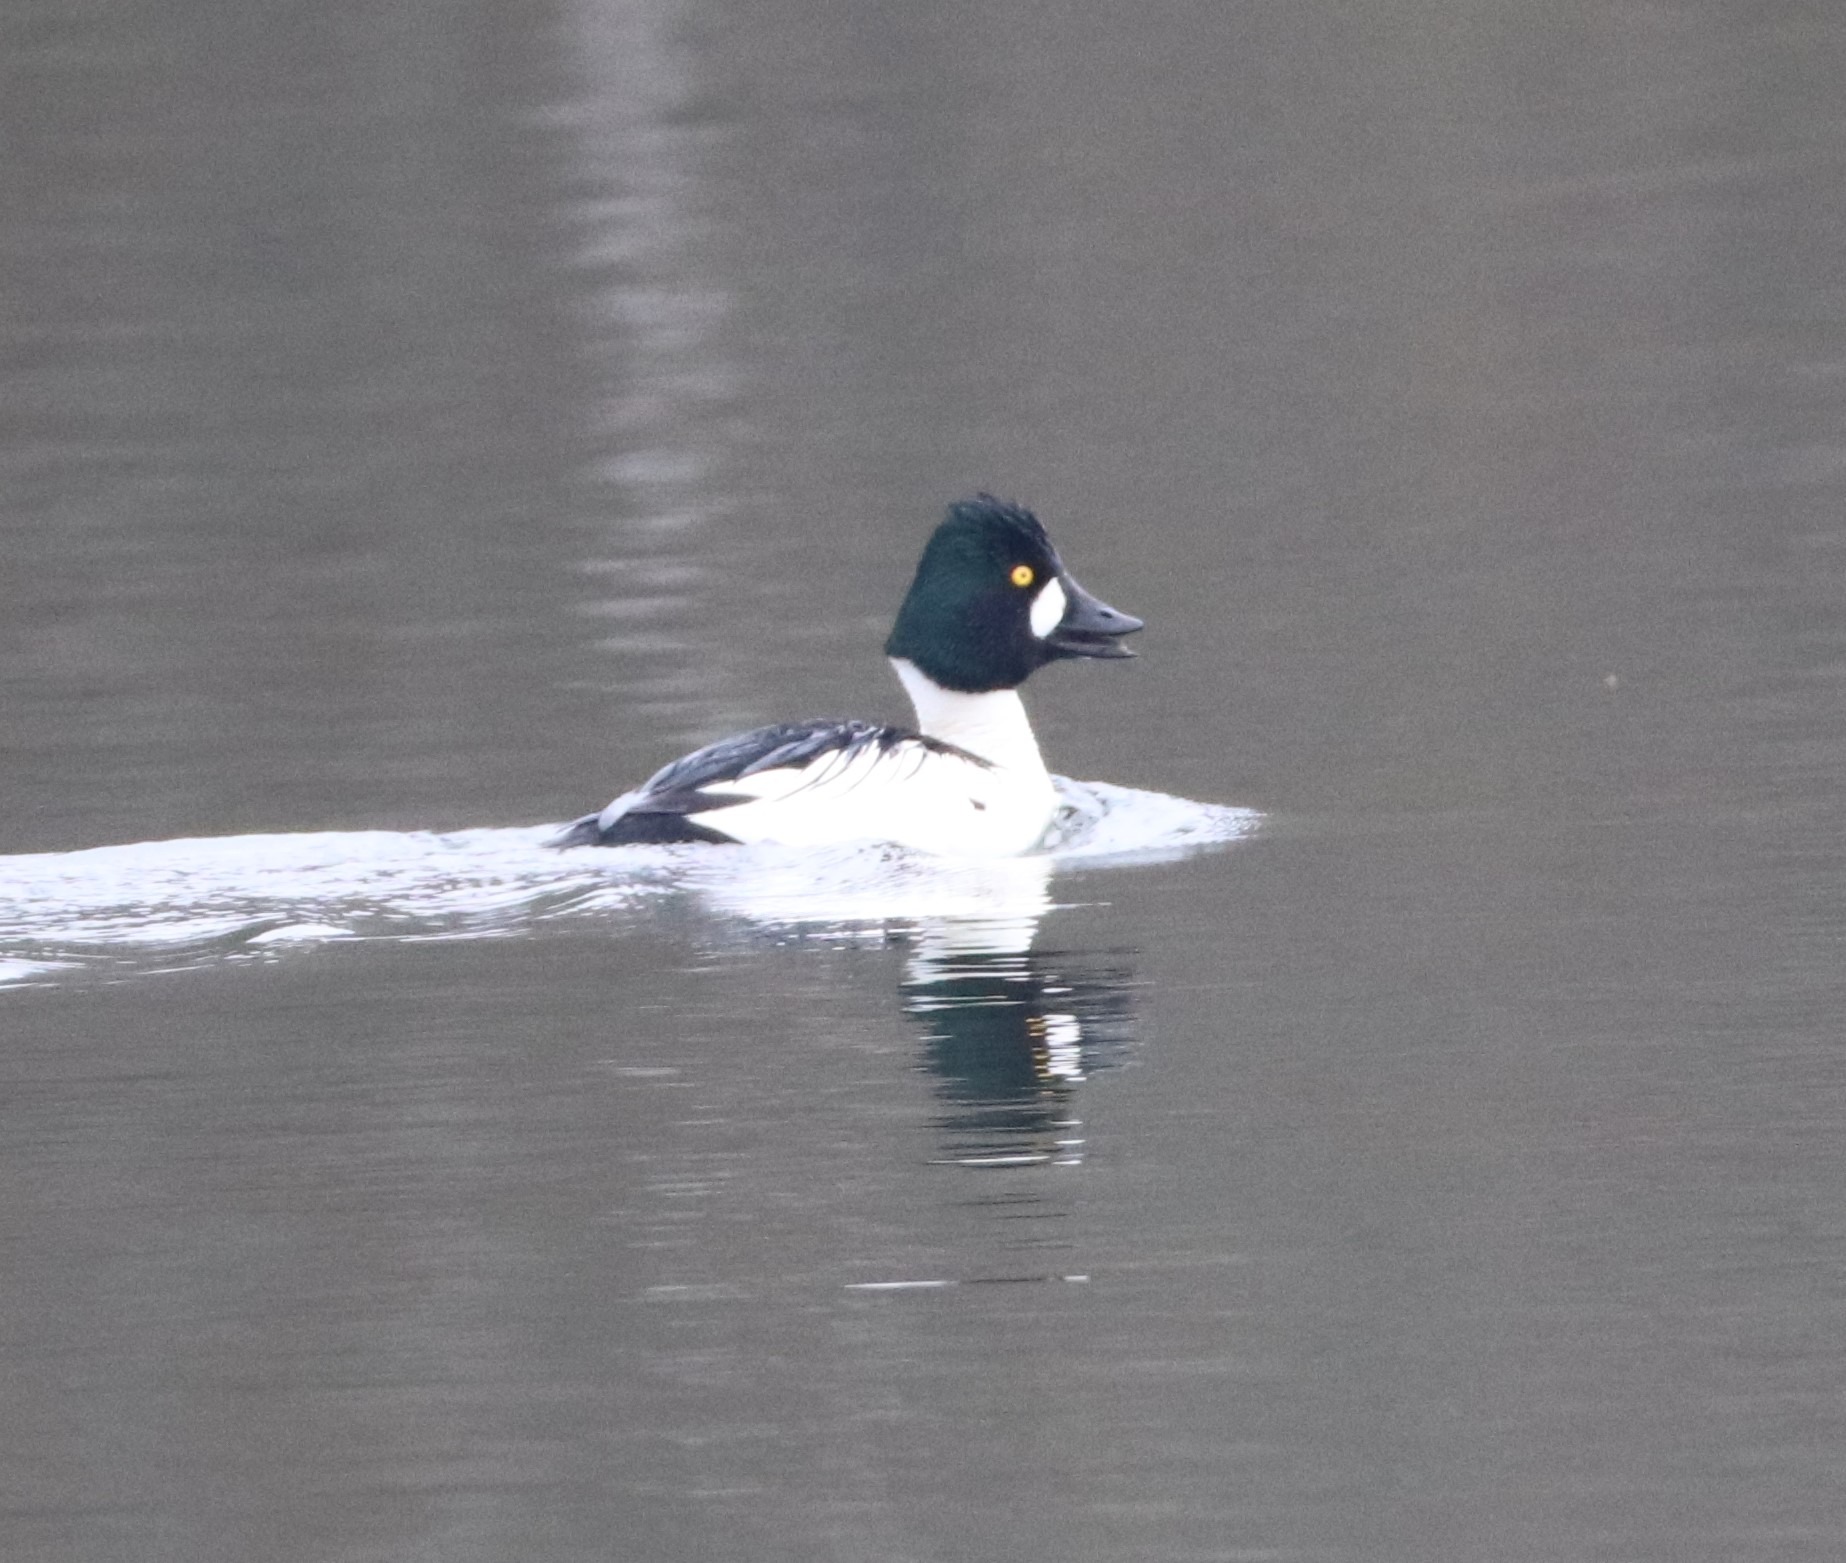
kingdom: Animalia
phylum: Chordata
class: Aves
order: Anseriformes
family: Anatidae
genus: Bucephala
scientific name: Bucephala clangula
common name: Hvinand
